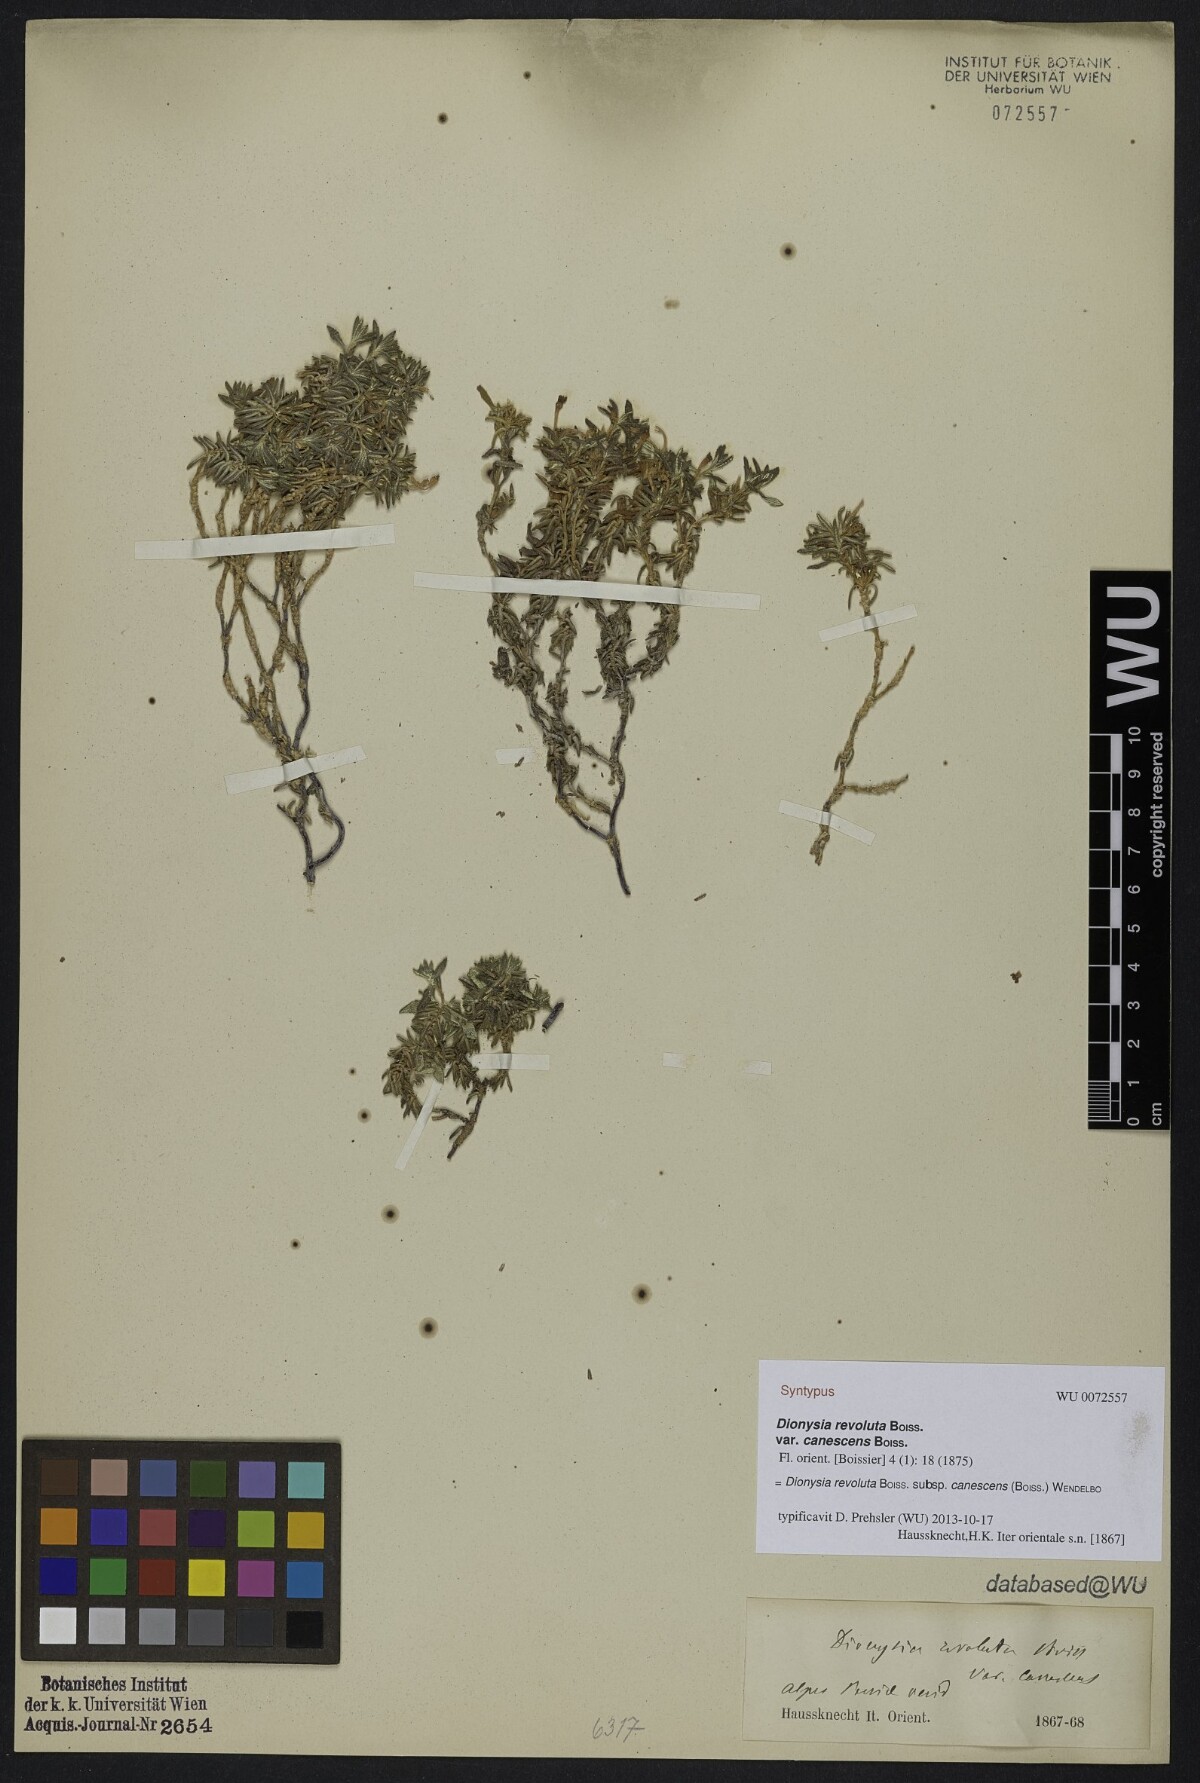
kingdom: Plantae
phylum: Tracheophyta
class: Magnoliopsida
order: Ericales
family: Primulaceae
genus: Dionysia
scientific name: Dionysia revoluta
